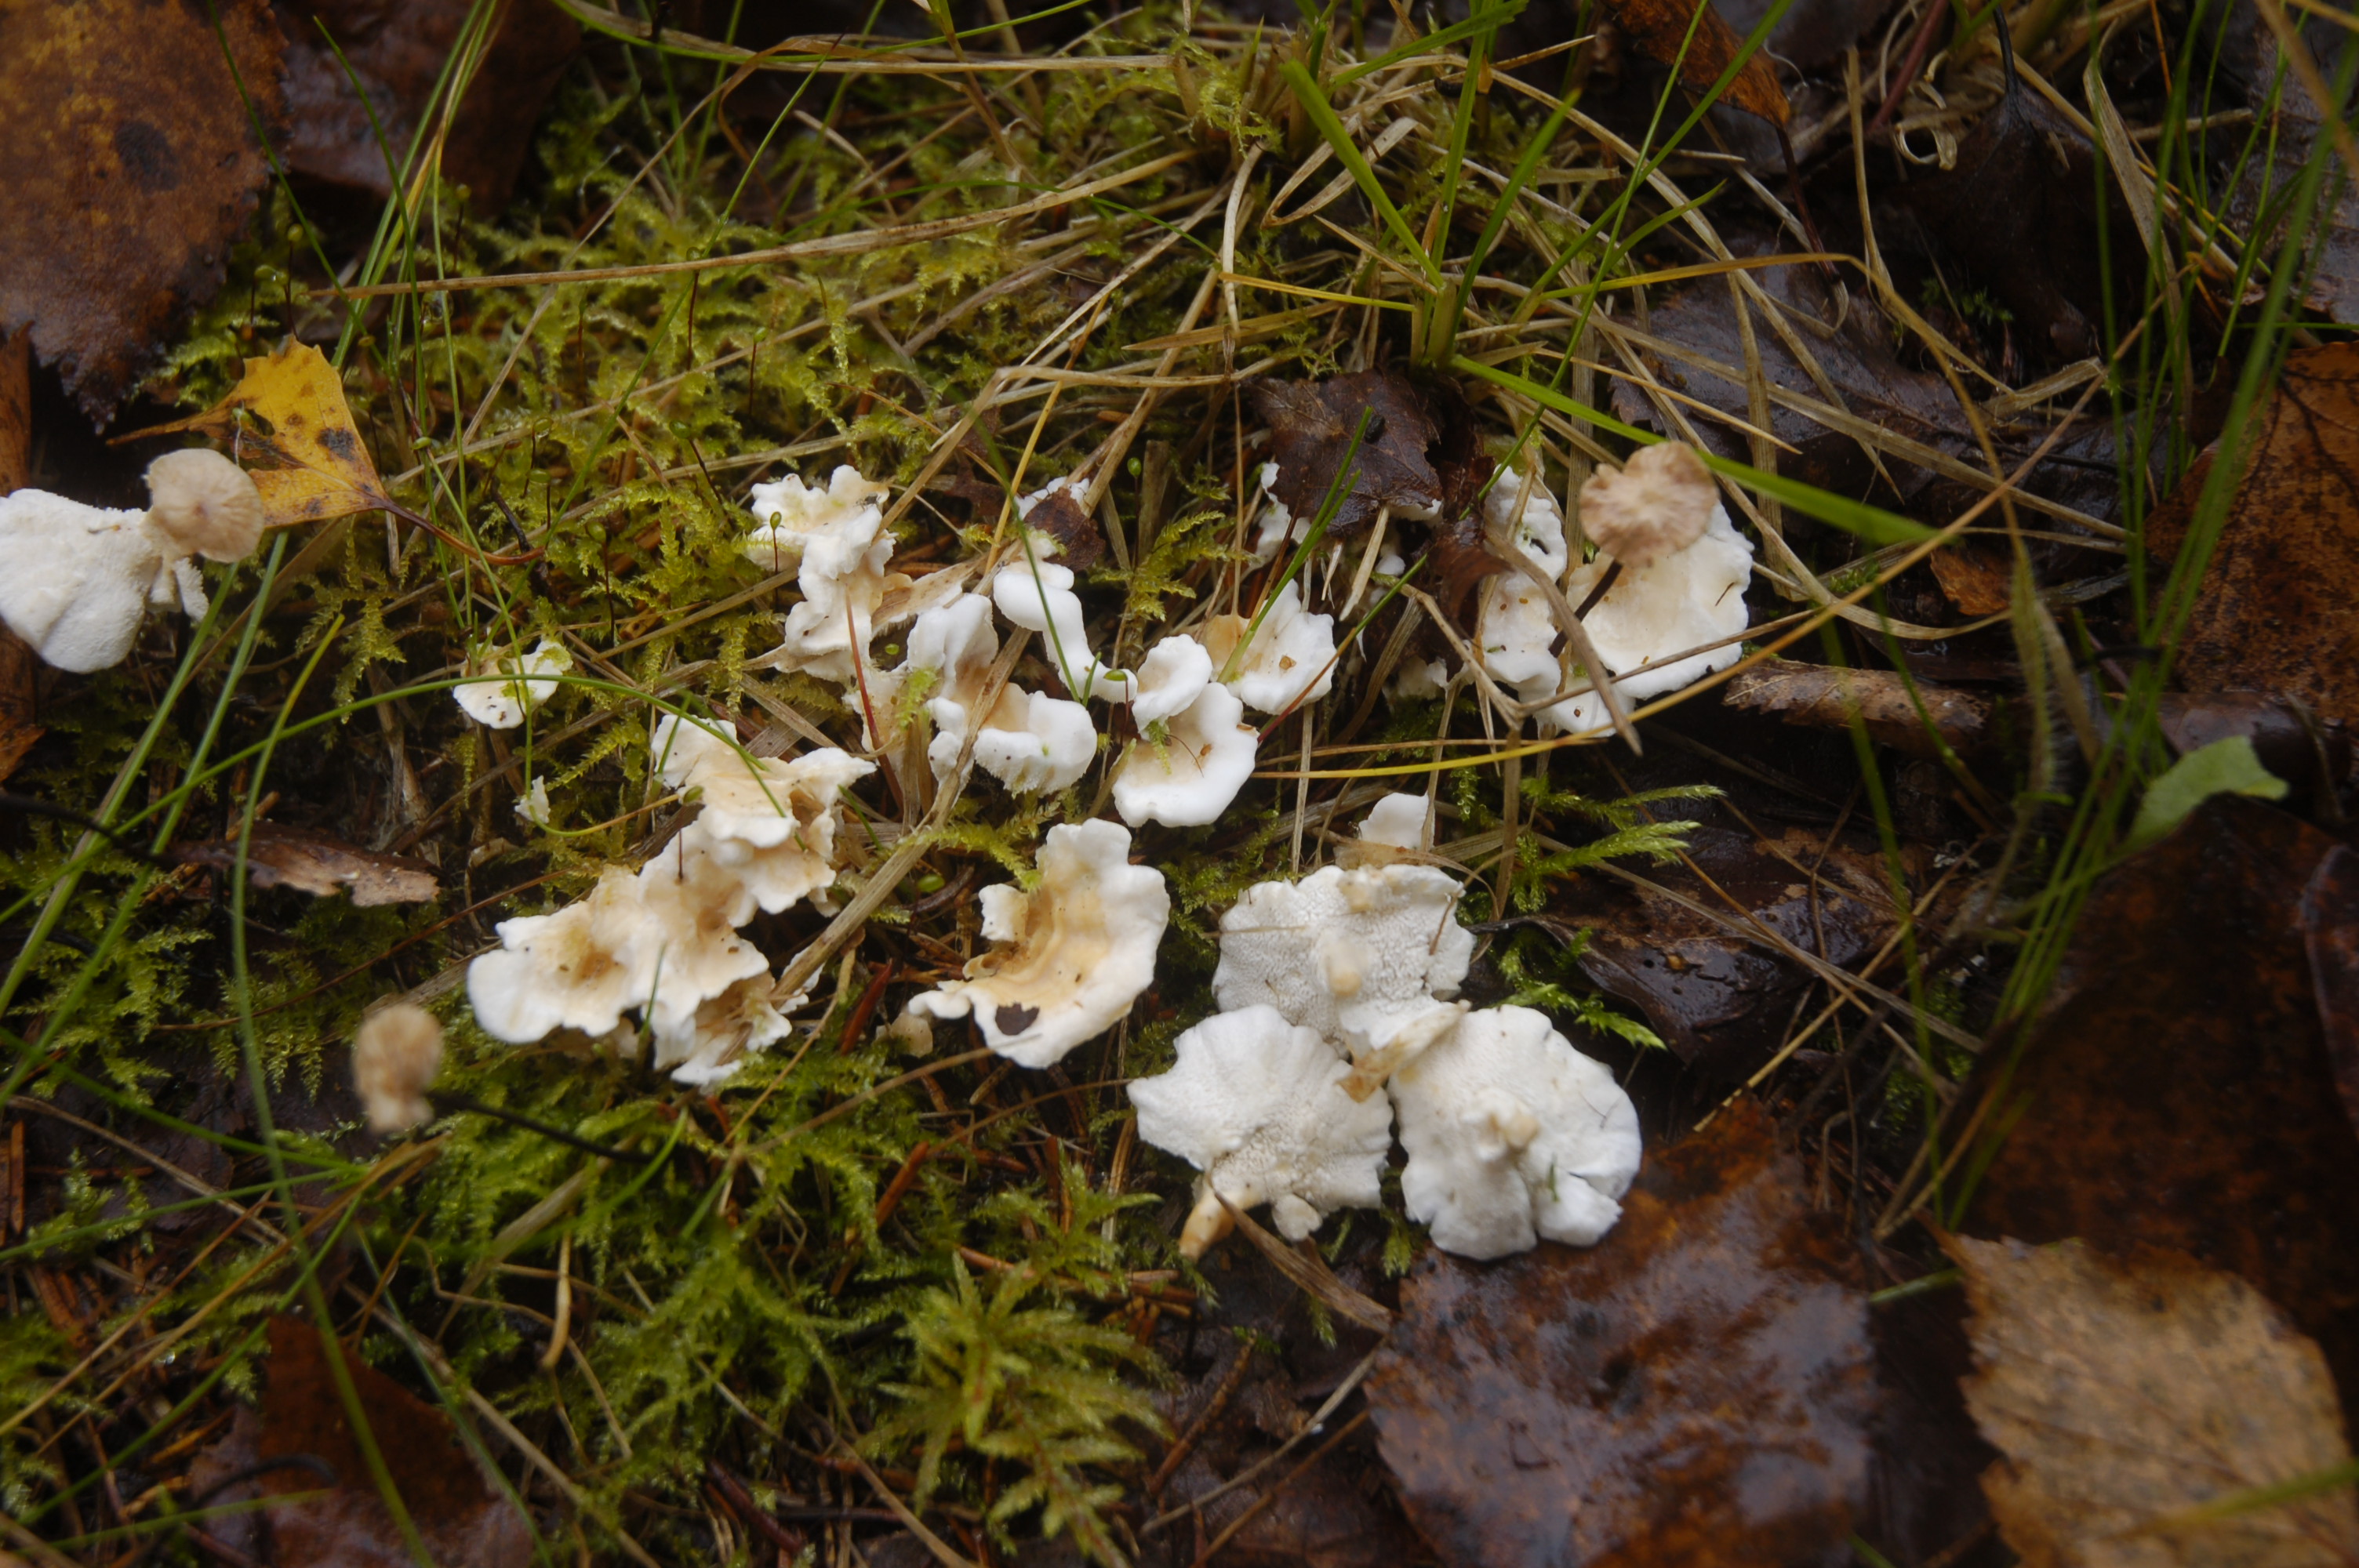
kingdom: Fungi
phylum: Basidiomycota
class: Agaricomycetes
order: Cantharellales
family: Hydnaceae
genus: Sistotrema
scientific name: Sistotrema confluens
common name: Aromatic earthfan
